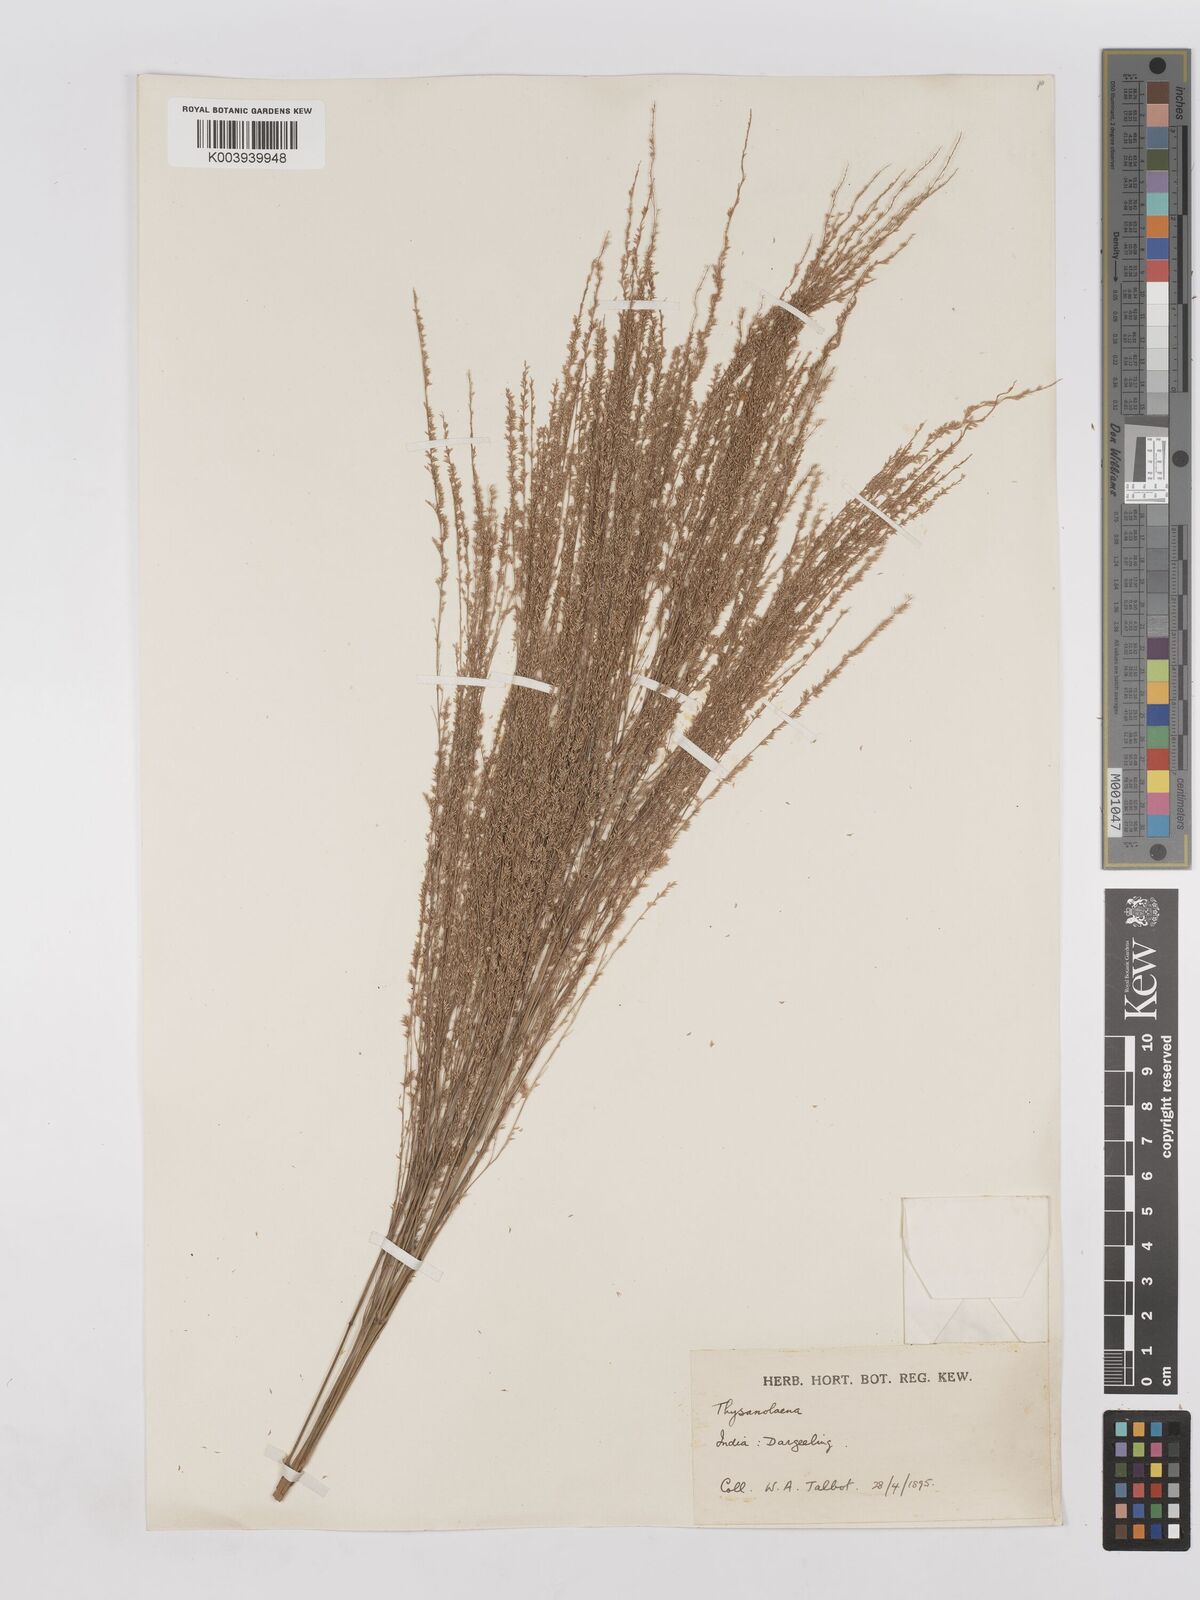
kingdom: Plantae
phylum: Tracheophyta
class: Liliopsida
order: Poales
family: Poaceae
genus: Thysanolaena
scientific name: Thysanolaena latifolia
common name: Tiger grass
